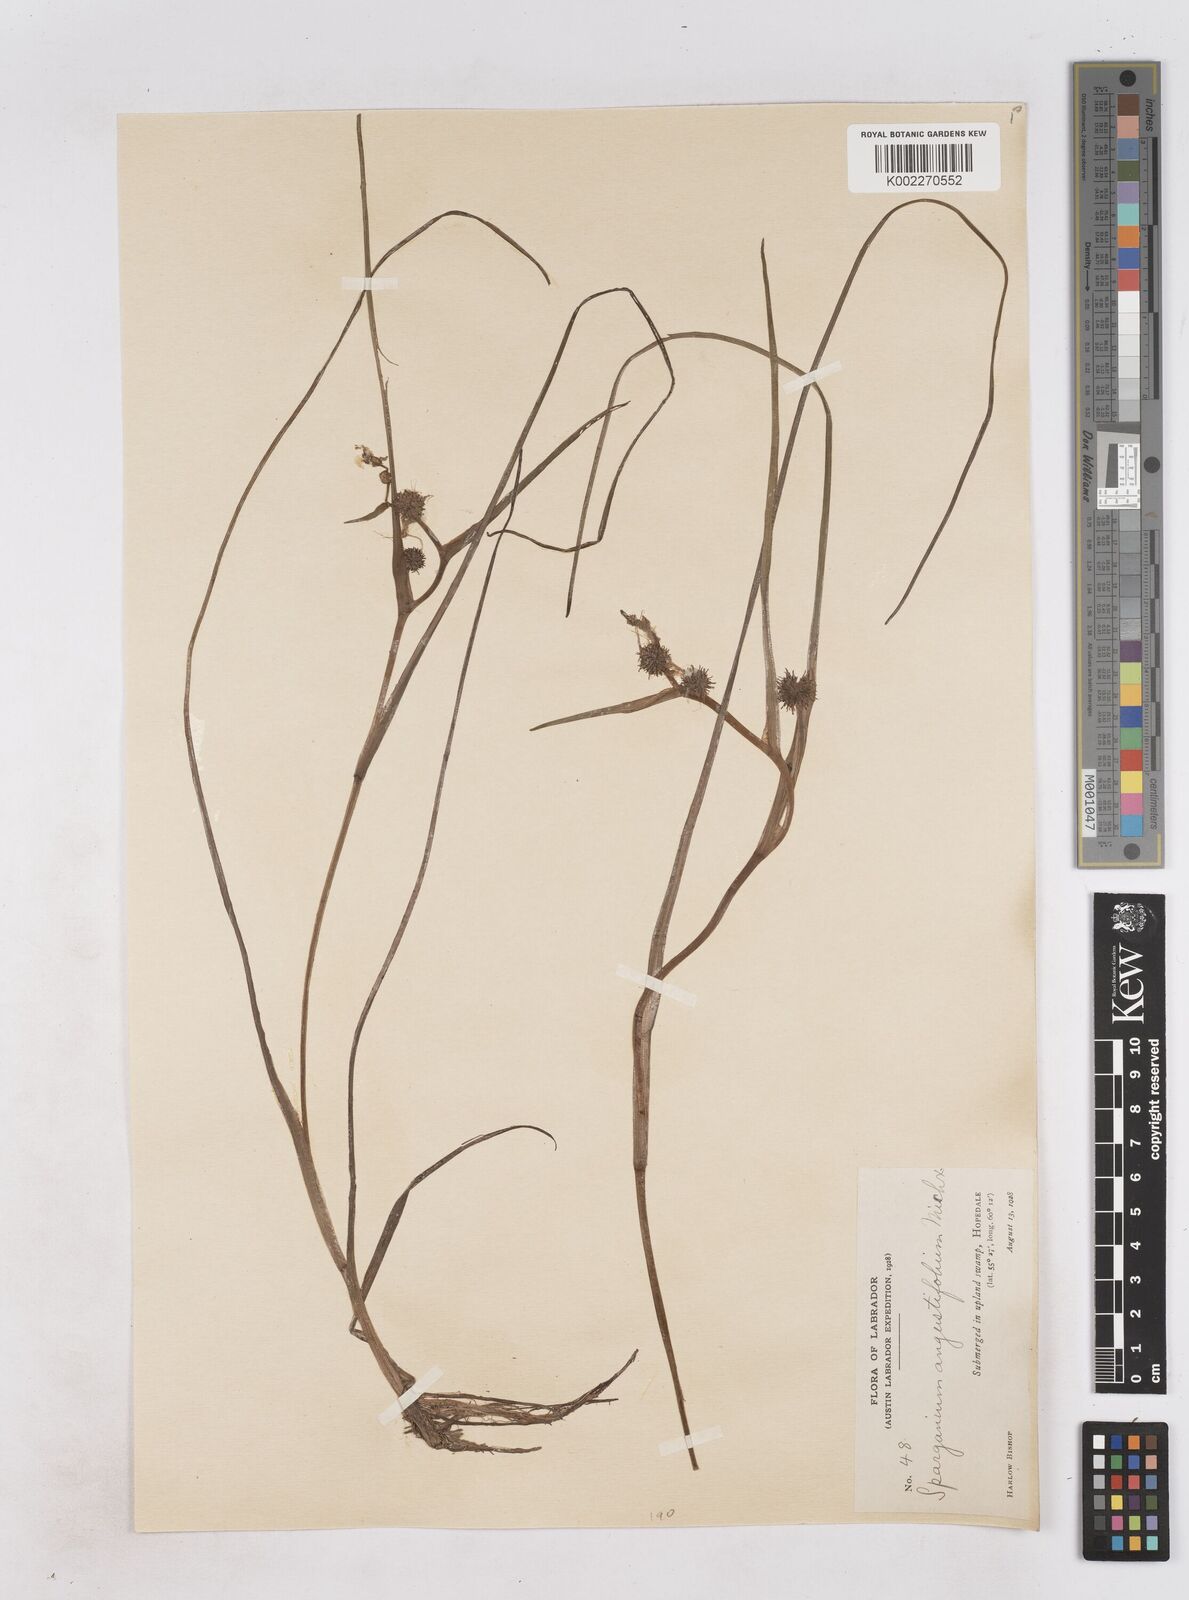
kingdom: Plantae
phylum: Tracheophyta
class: Liliopsida
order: Poales
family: Typhaceae
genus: Sparganium
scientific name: Sparganium angustifolium
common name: Floating bur-reed
